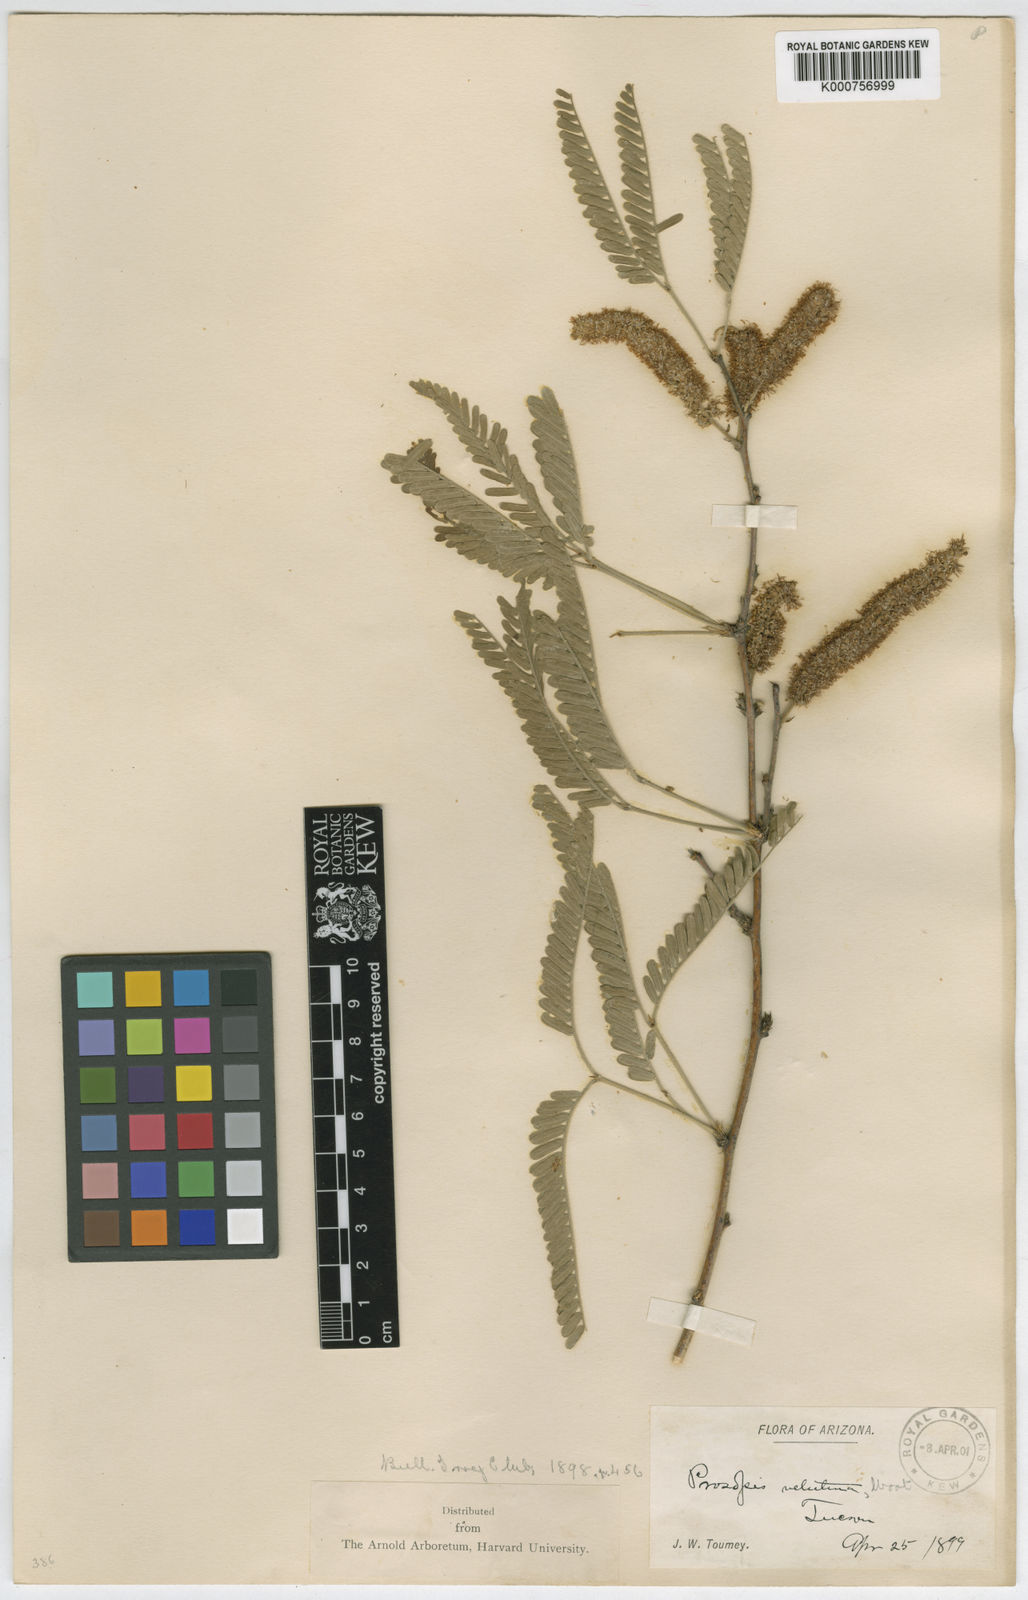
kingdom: Plantae
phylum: Tracheophyta
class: Magnoliopsida
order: Fabales
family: Fabaceae
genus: Prosopis
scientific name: Prosopis velutina
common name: Velvet mesquite
